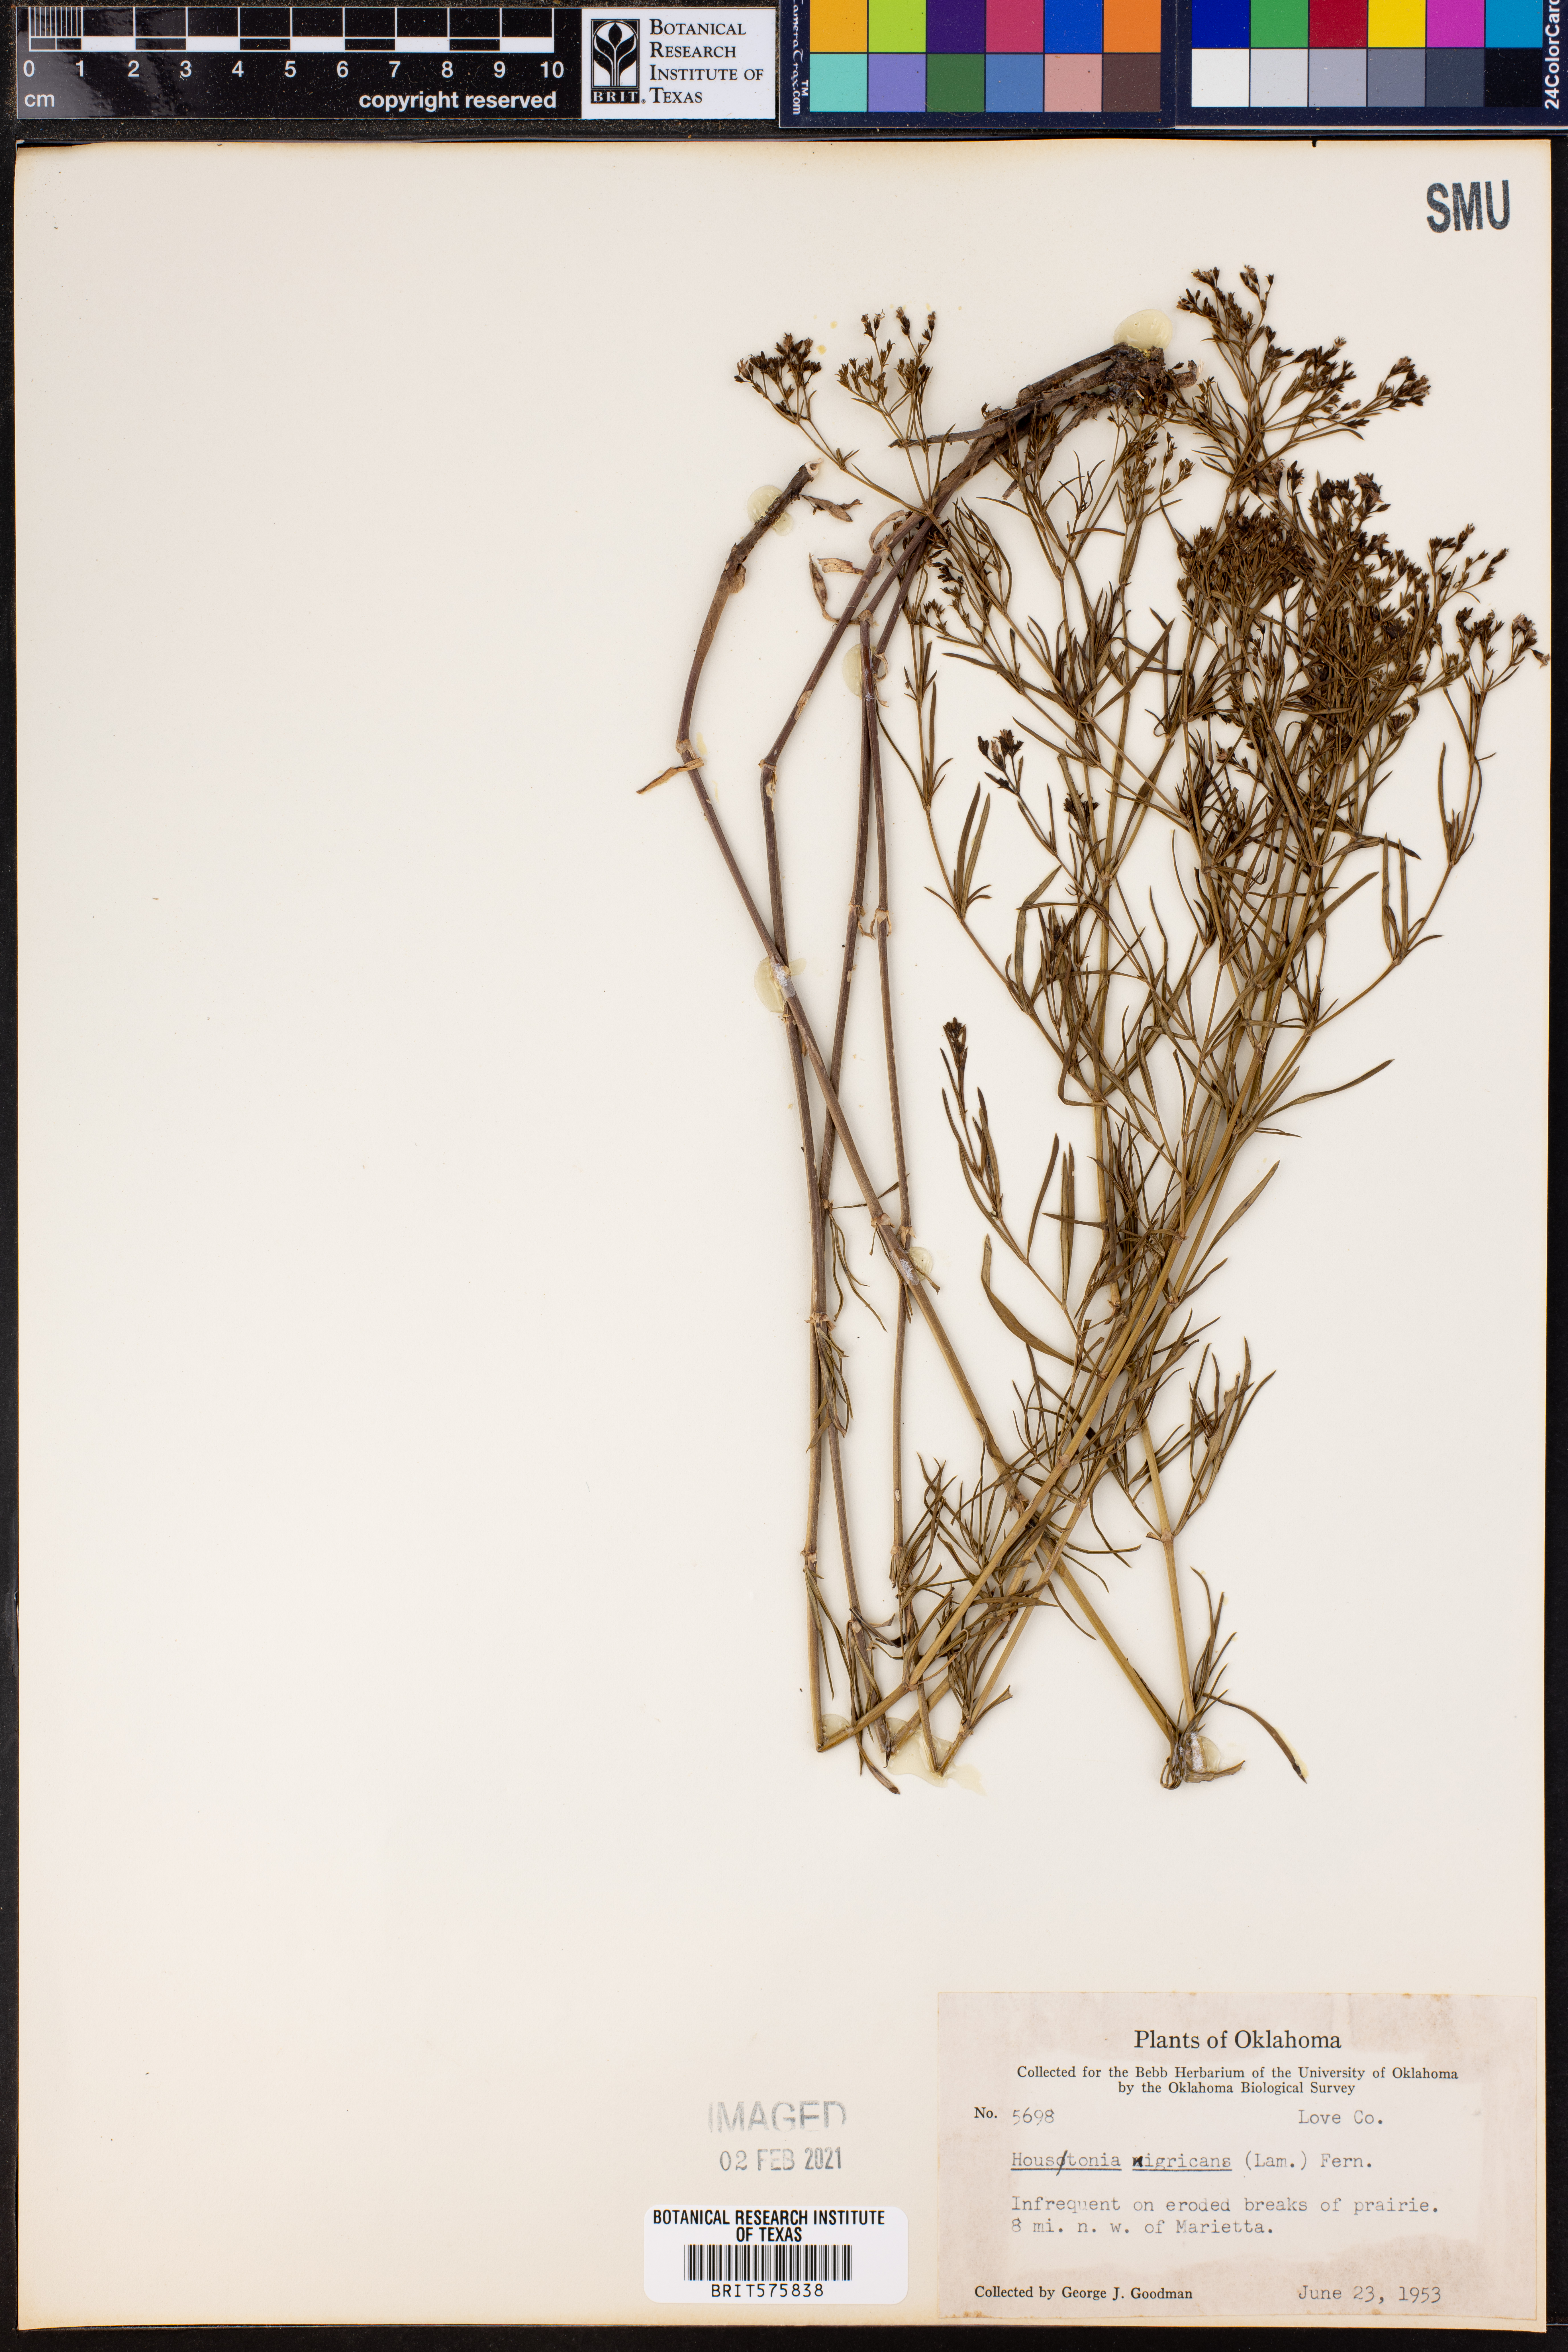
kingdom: Plantae
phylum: Tracheophyta
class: Magnoliopsida
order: Gentianales
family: Rubiaceae
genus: Stenaria
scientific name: Stenaria nigricans
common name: Diamondflowers
